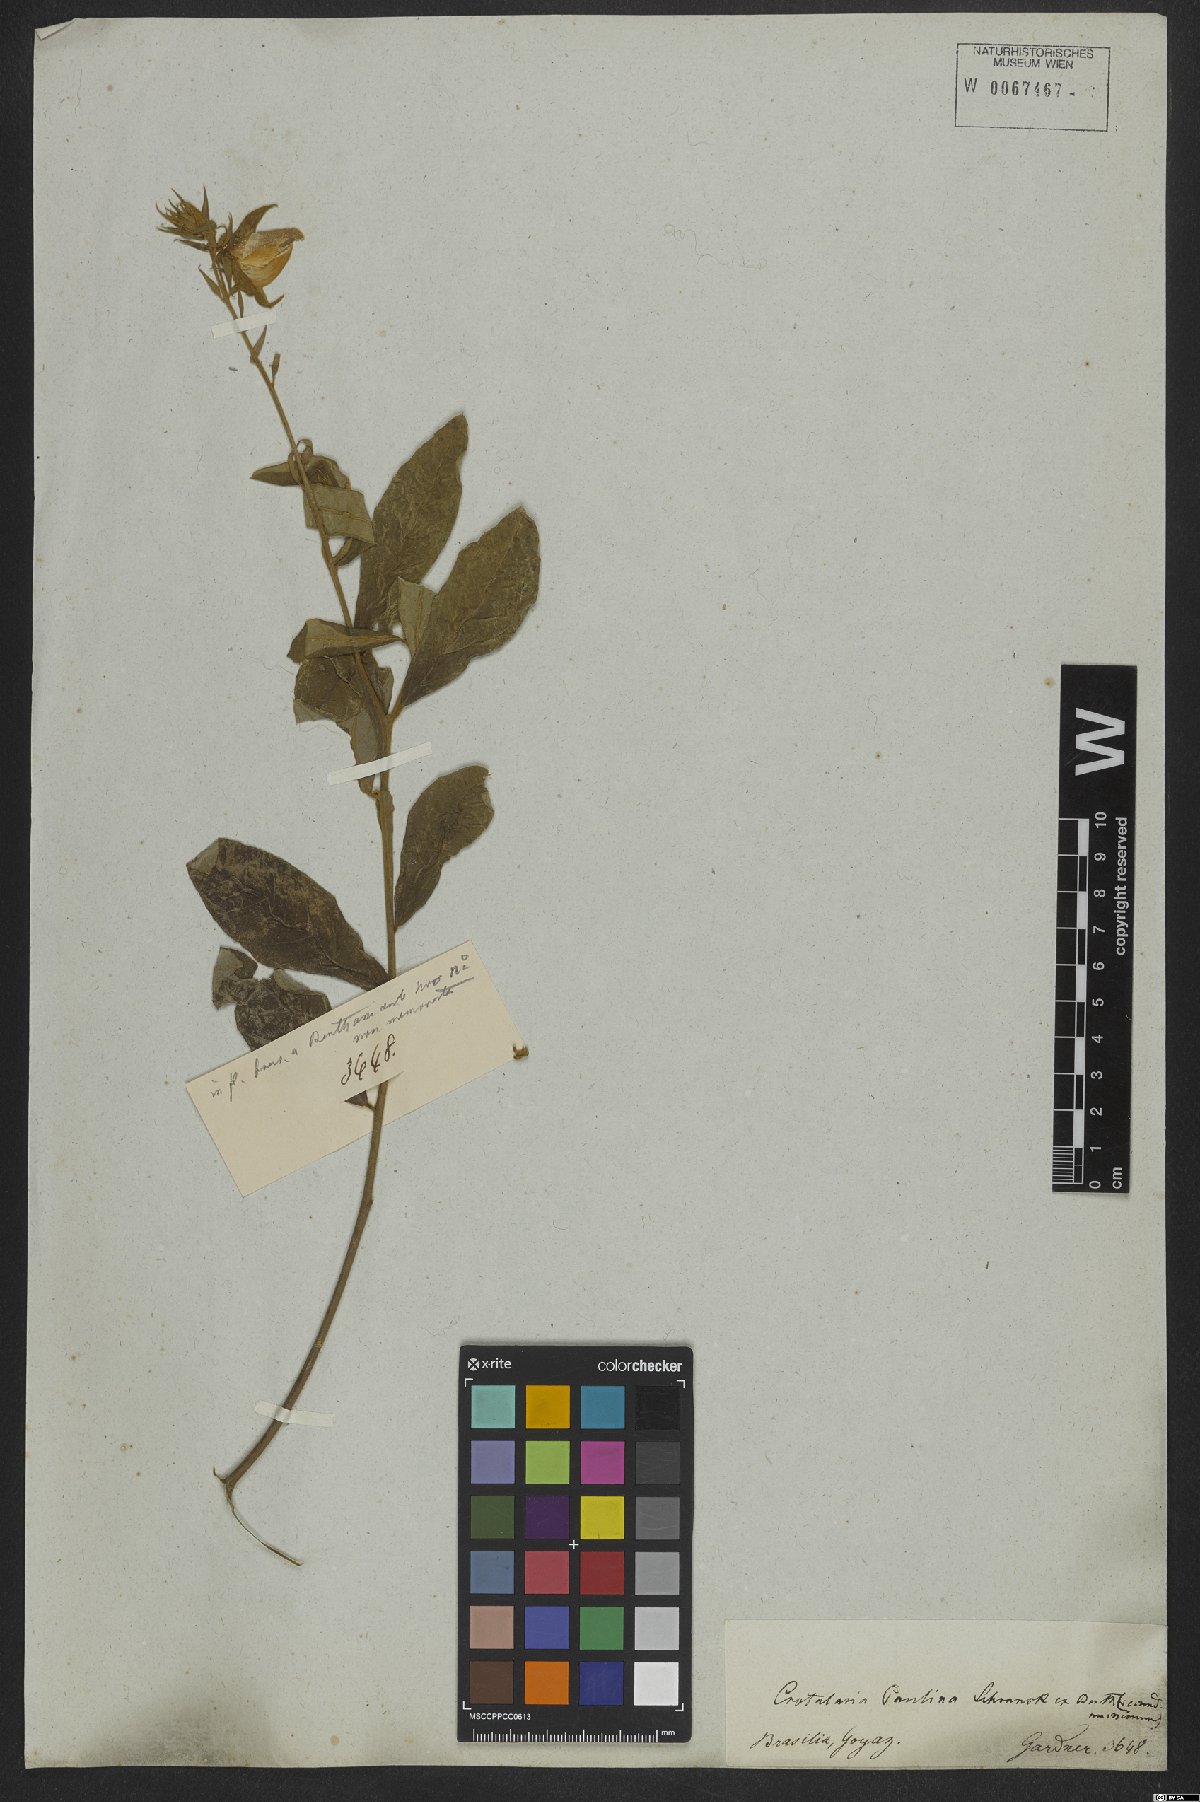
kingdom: Plantae
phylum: Tracheophyta
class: Magnoliopsida
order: Fabales
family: Fabaceae
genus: Crotalaria
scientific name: Crotalaria paulina
